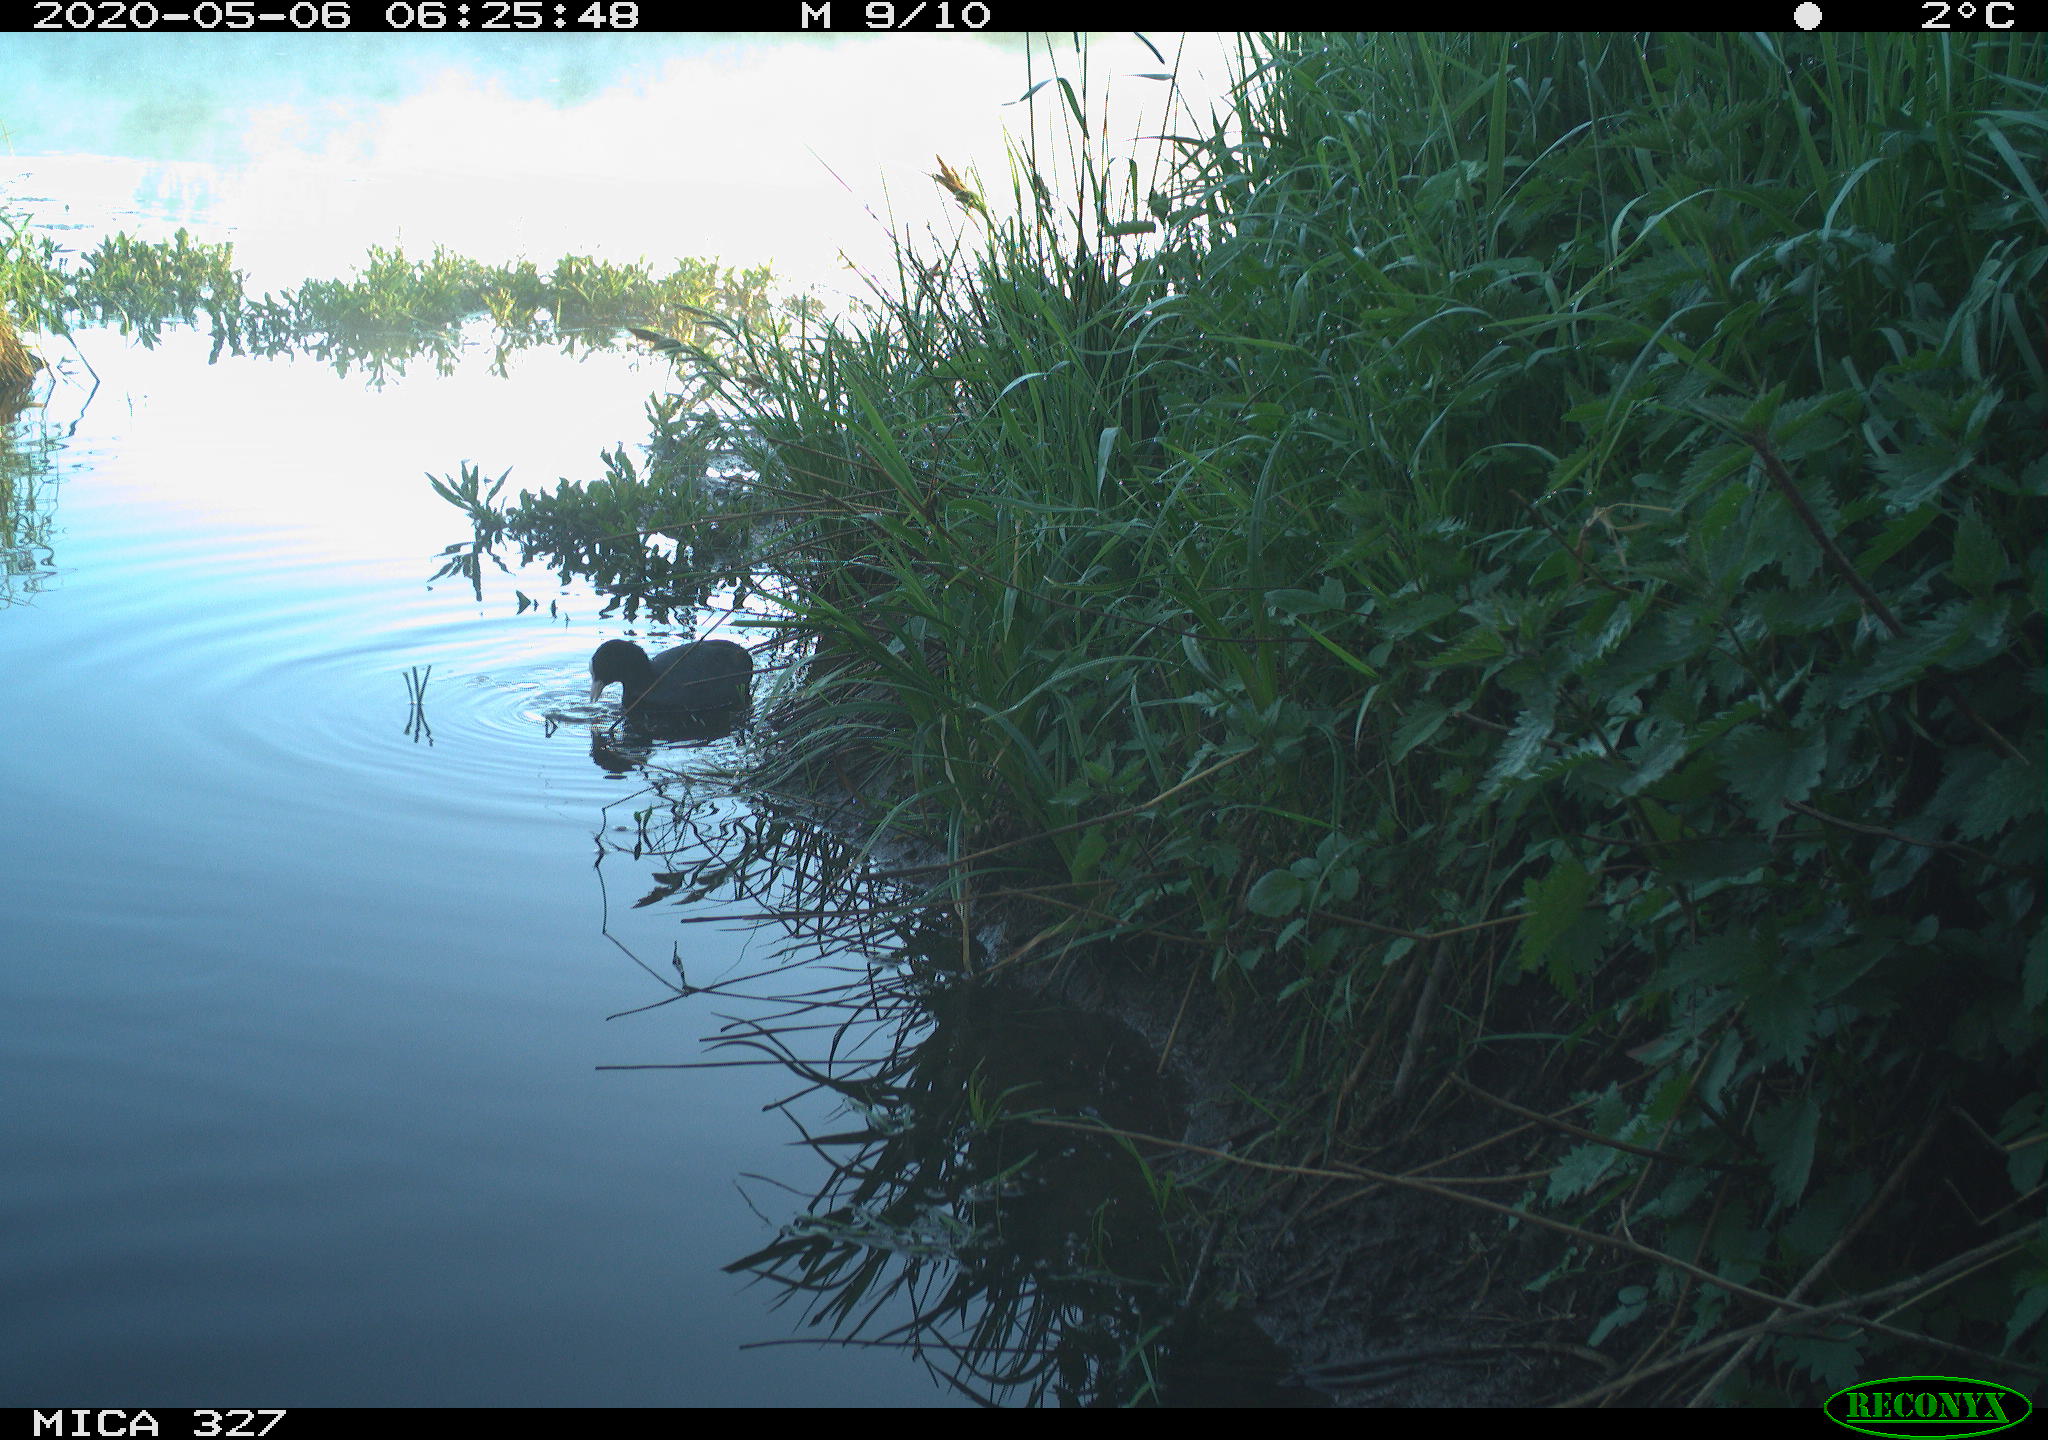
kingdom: Animalia
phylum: Chordata
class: Aves
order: Gruiformes
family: Rallidae
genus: Fulica
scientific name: Fulica atra
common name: Eurasian coot
